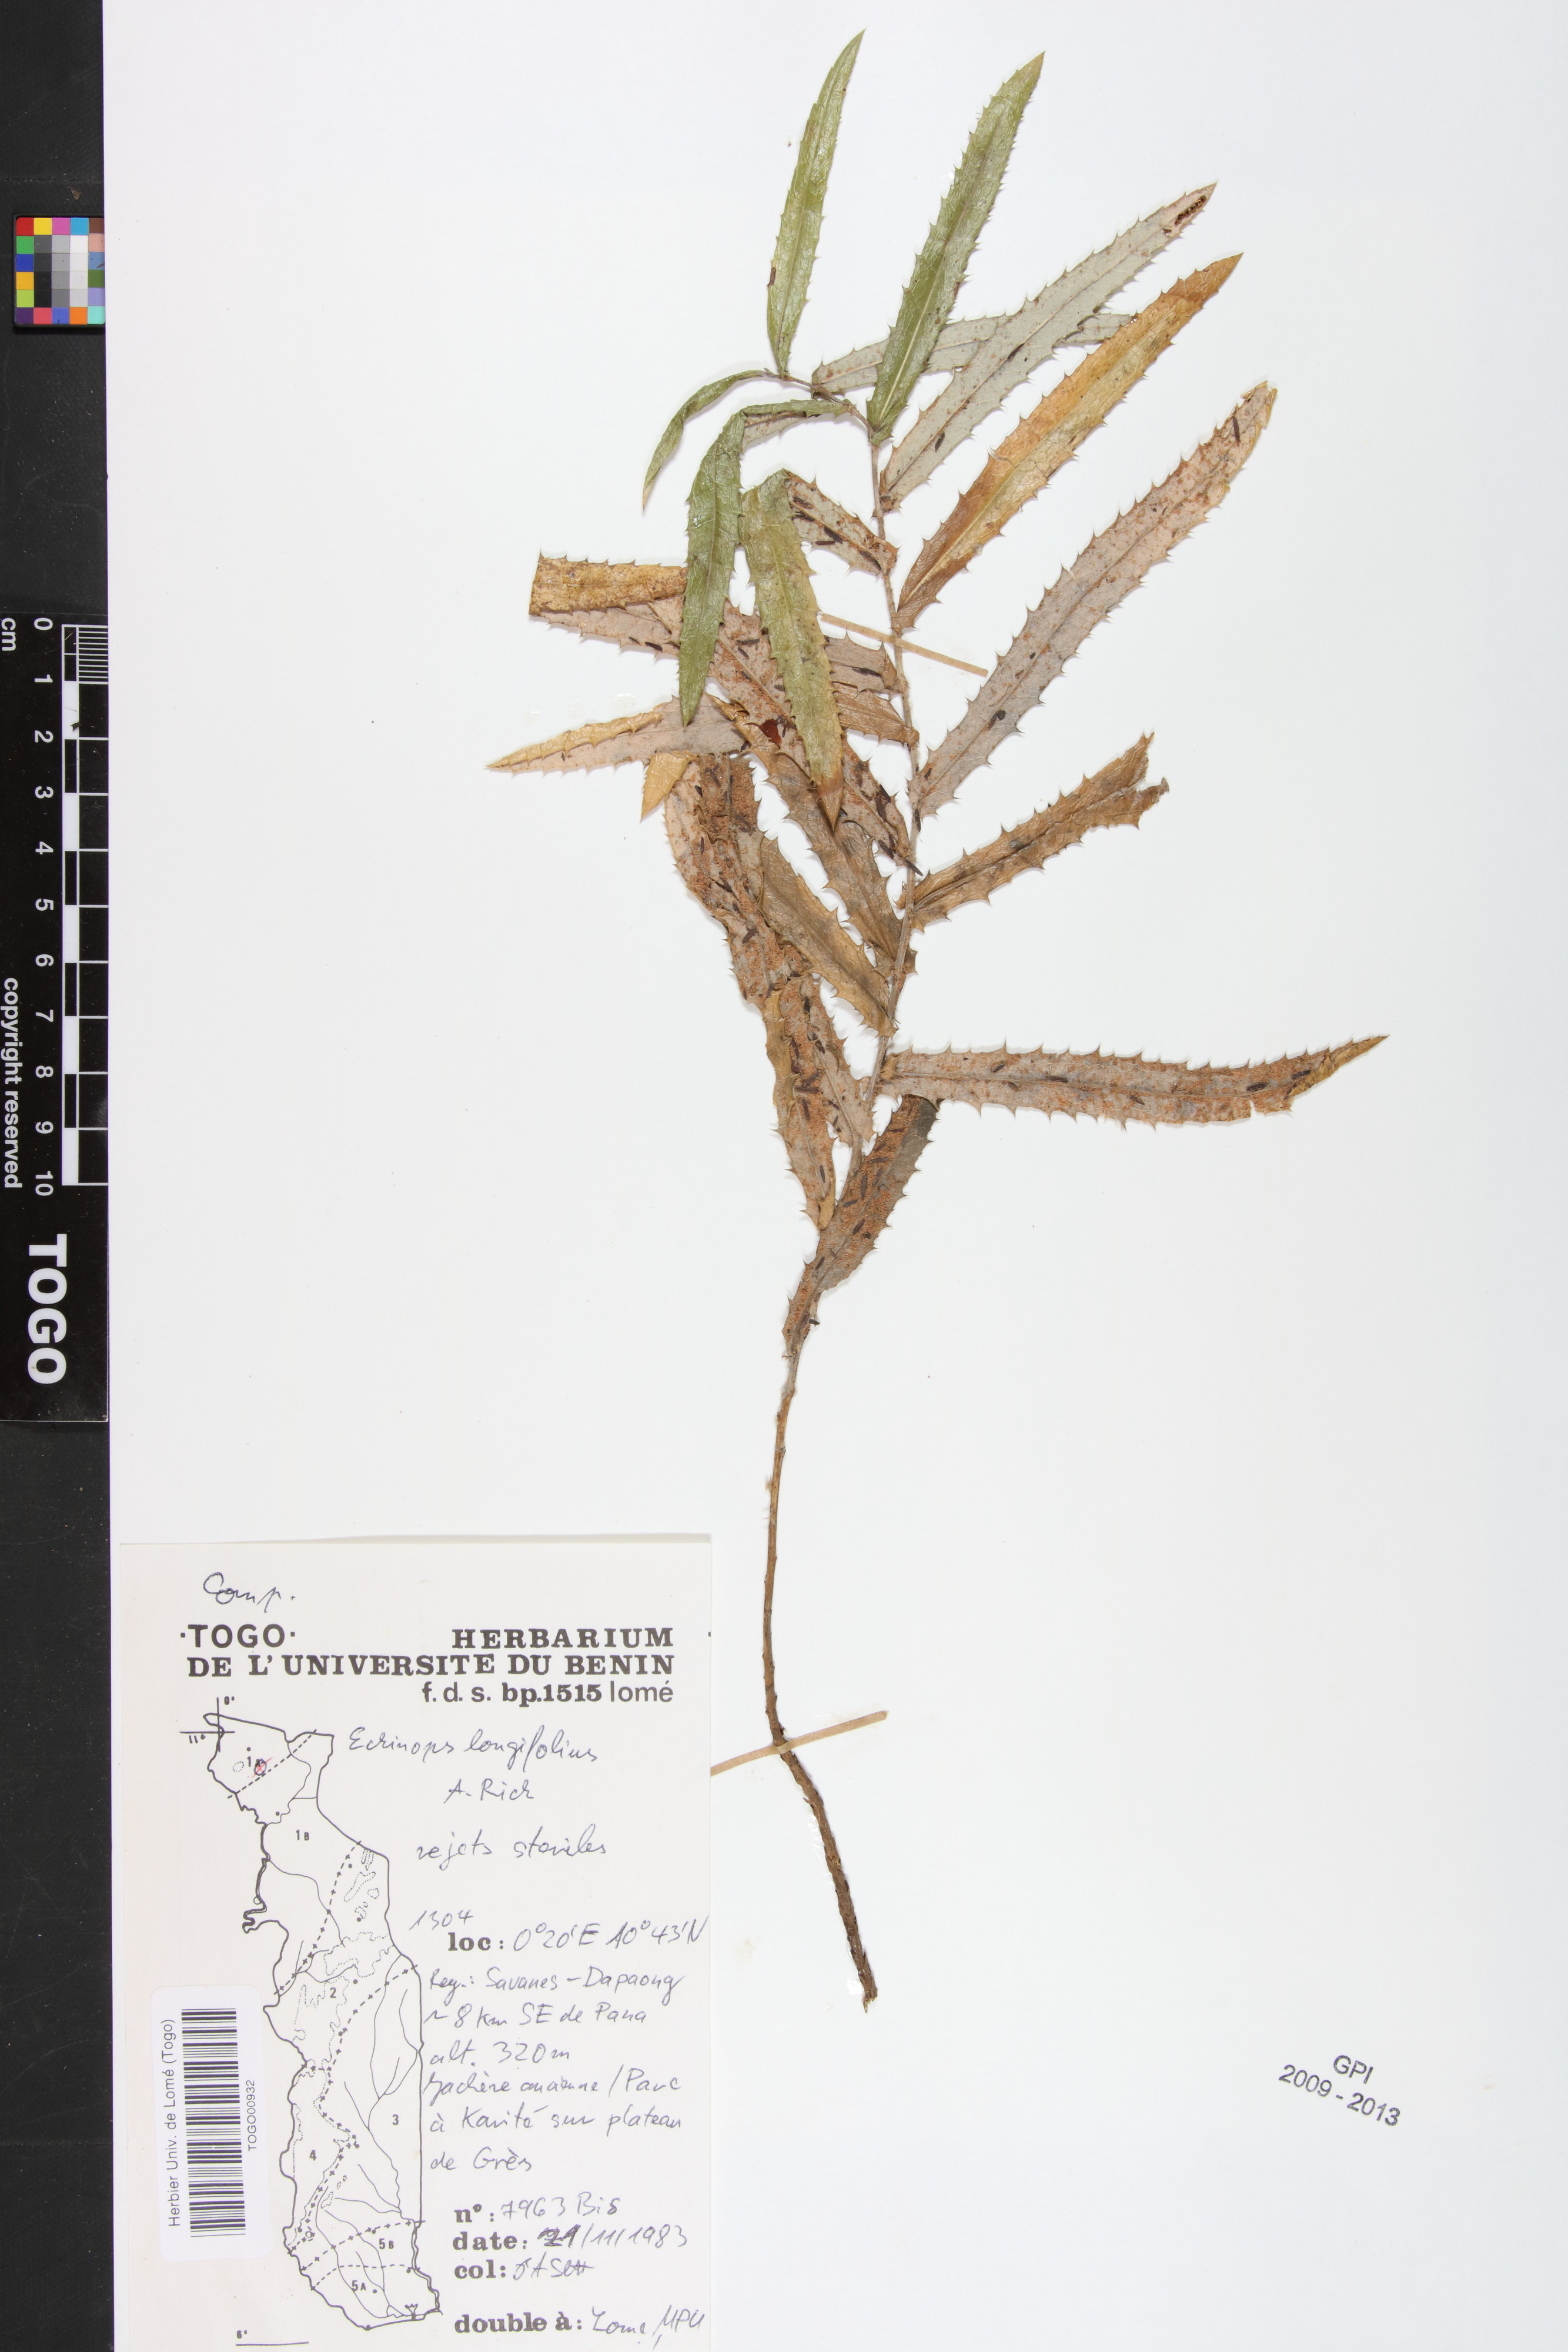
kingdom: Plantae
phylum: Tracheophyta
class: Magnoliopsida
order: Asterales
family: Asteraceae
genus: Echinops
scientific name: Echinops longifolius
